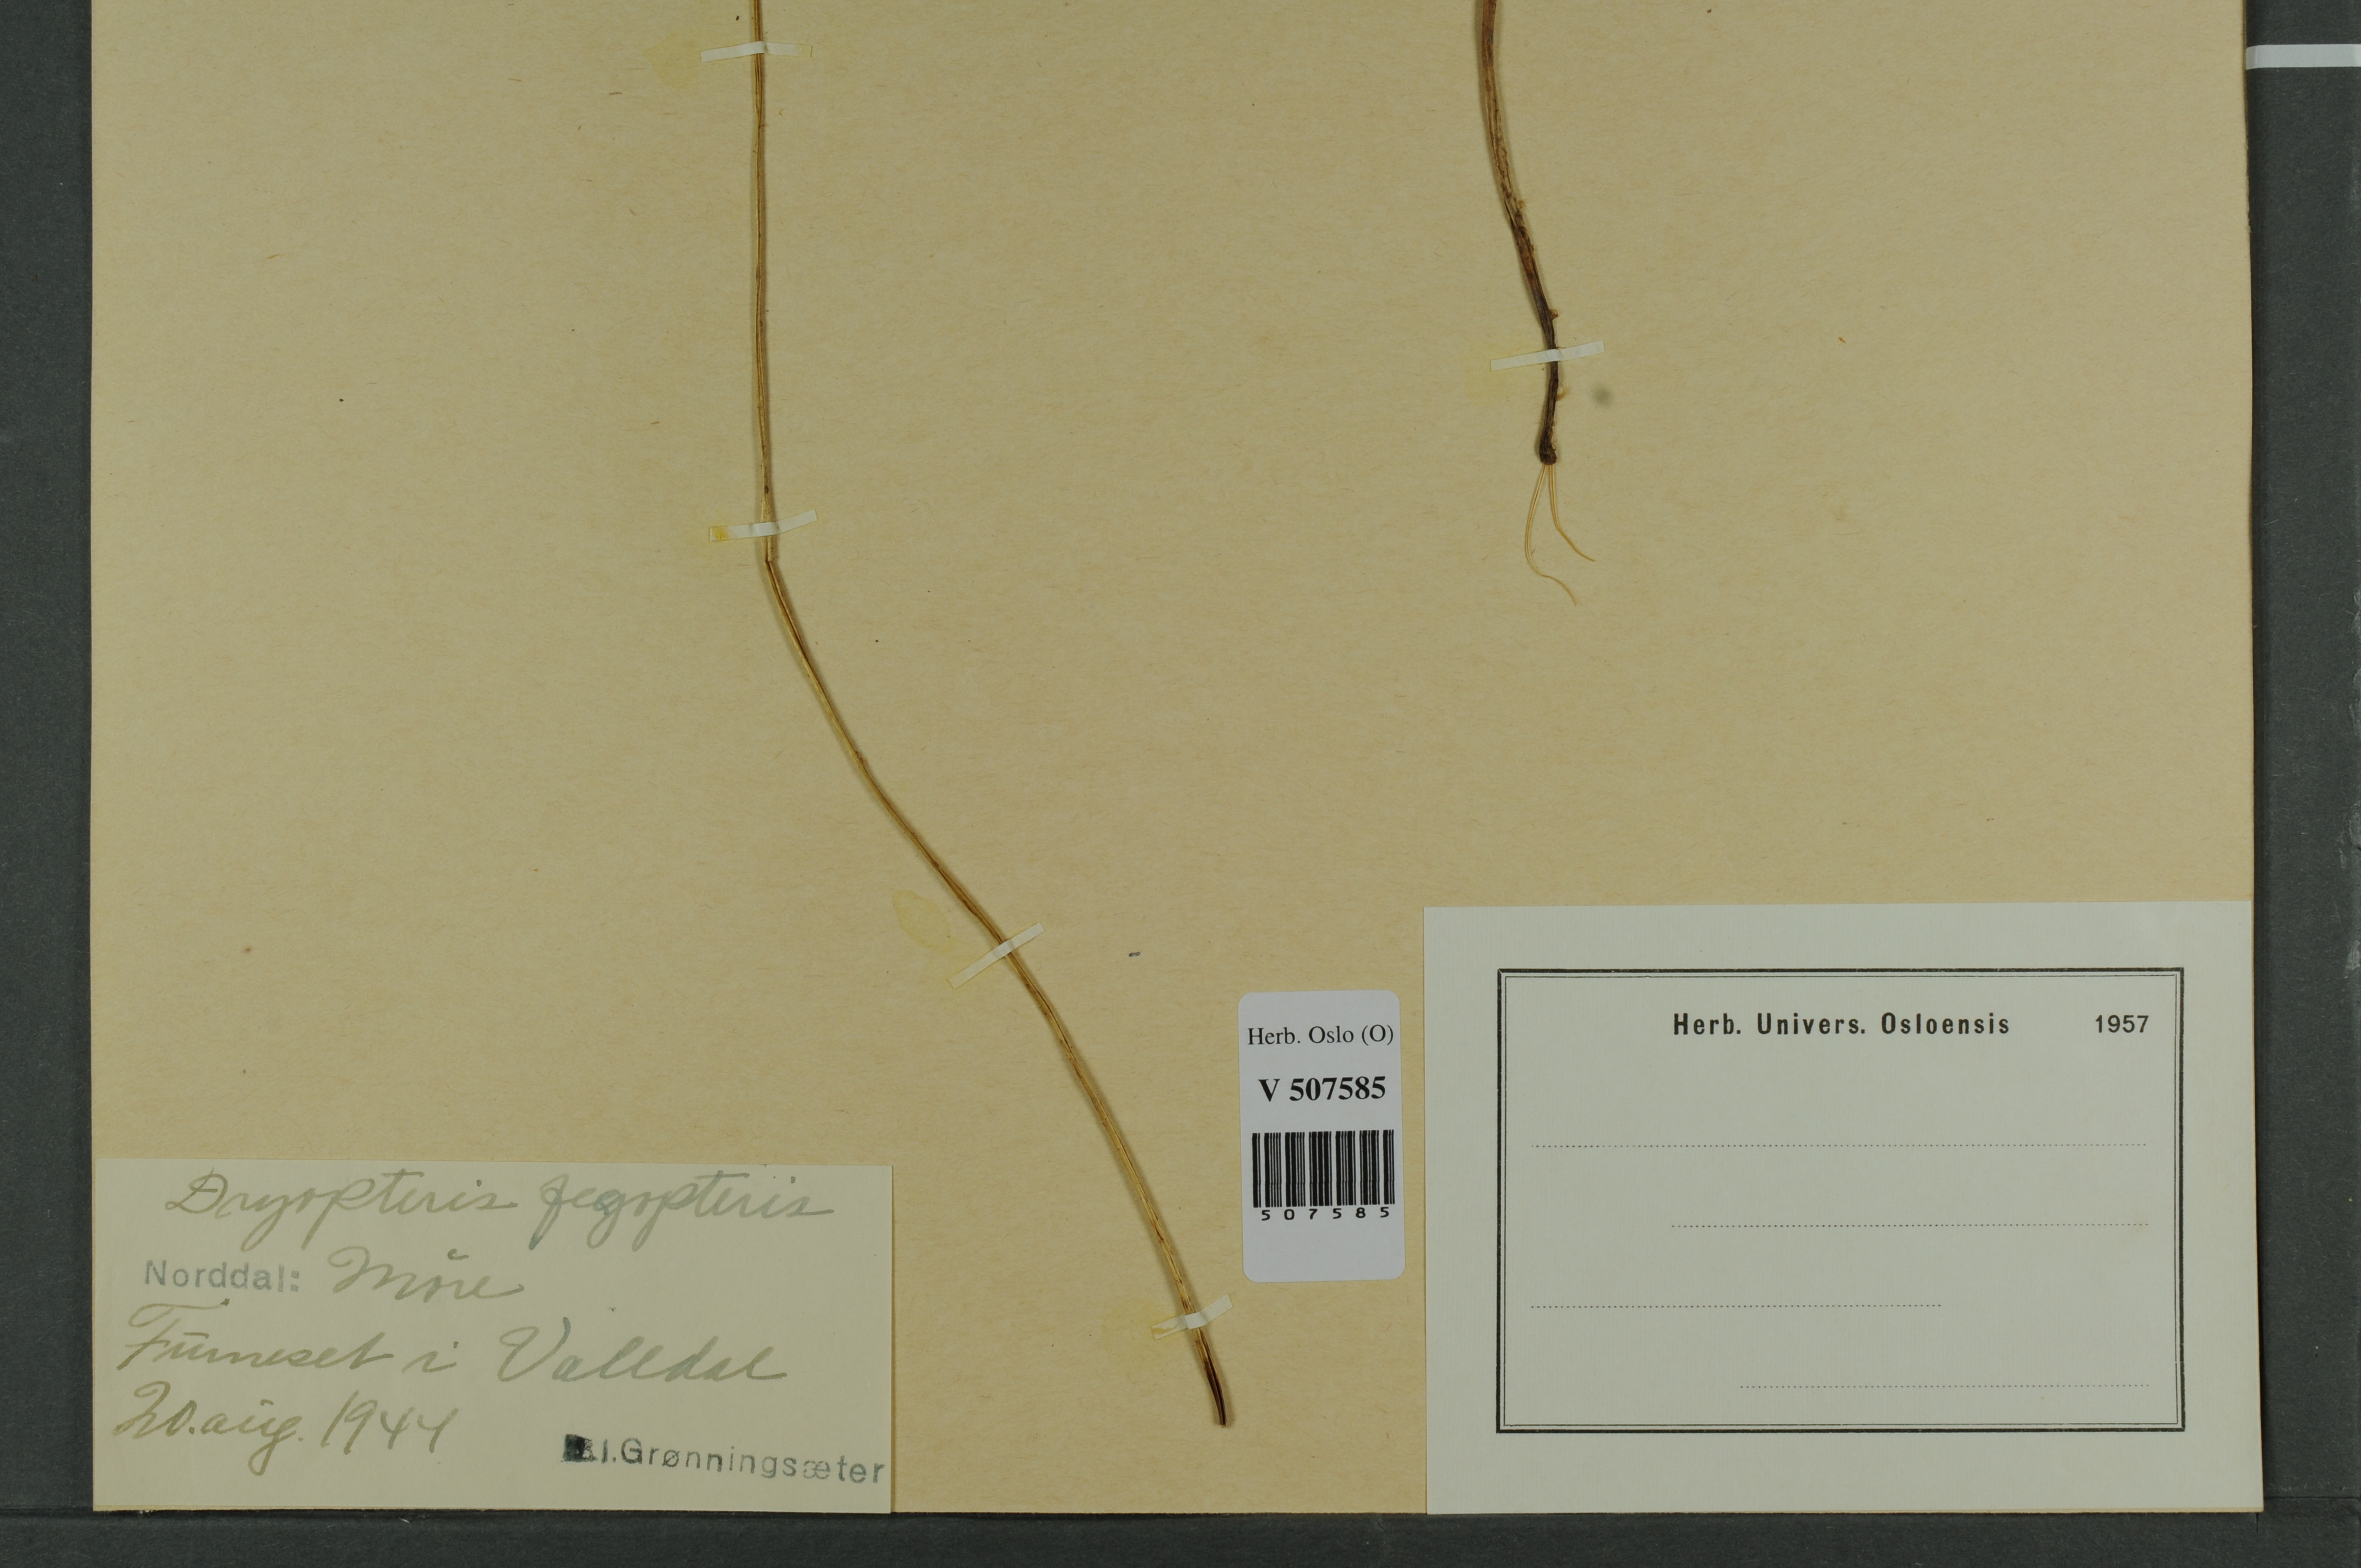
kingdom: Plantae
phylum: Tracheophyta
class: Polypodiopsida
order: Polypodiales
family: Thelypteridaceae
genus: Phegopteris
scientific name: Phegopteris connectilis
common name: Beech fern
